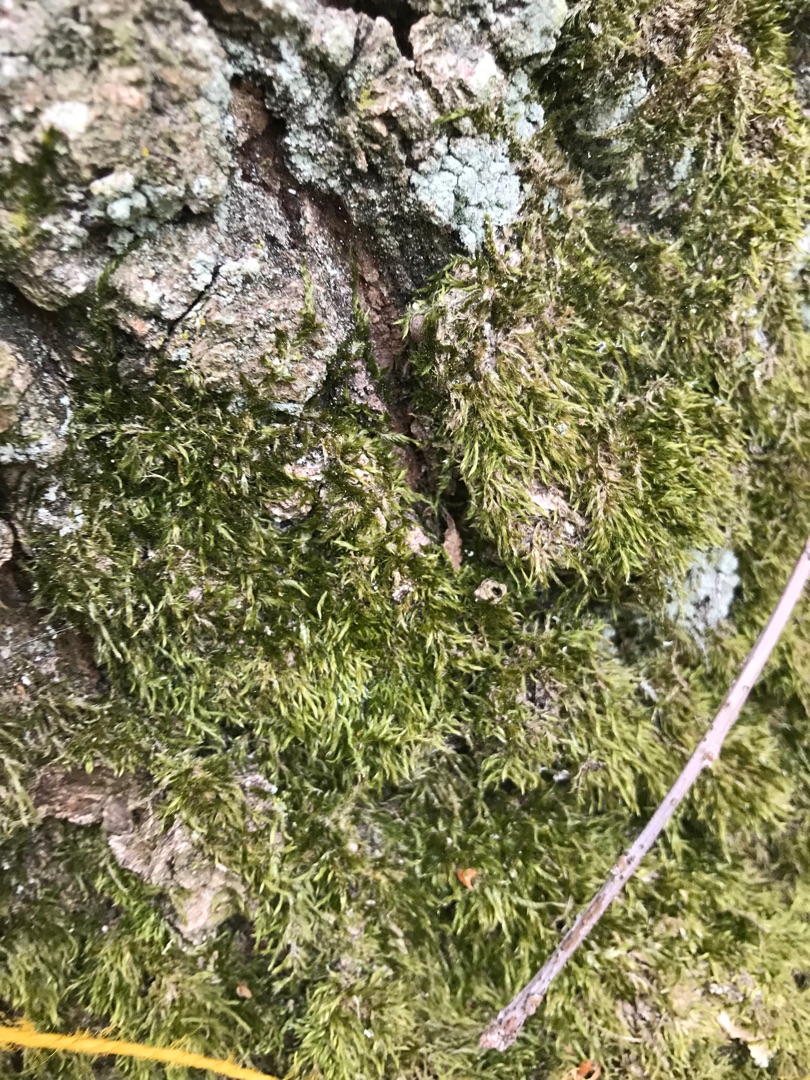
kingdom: Plantae
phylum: Bryophyta
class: Bryopsida
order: Hypnales
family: Hypnaceae
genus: Hypnum
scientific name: Hypnum
